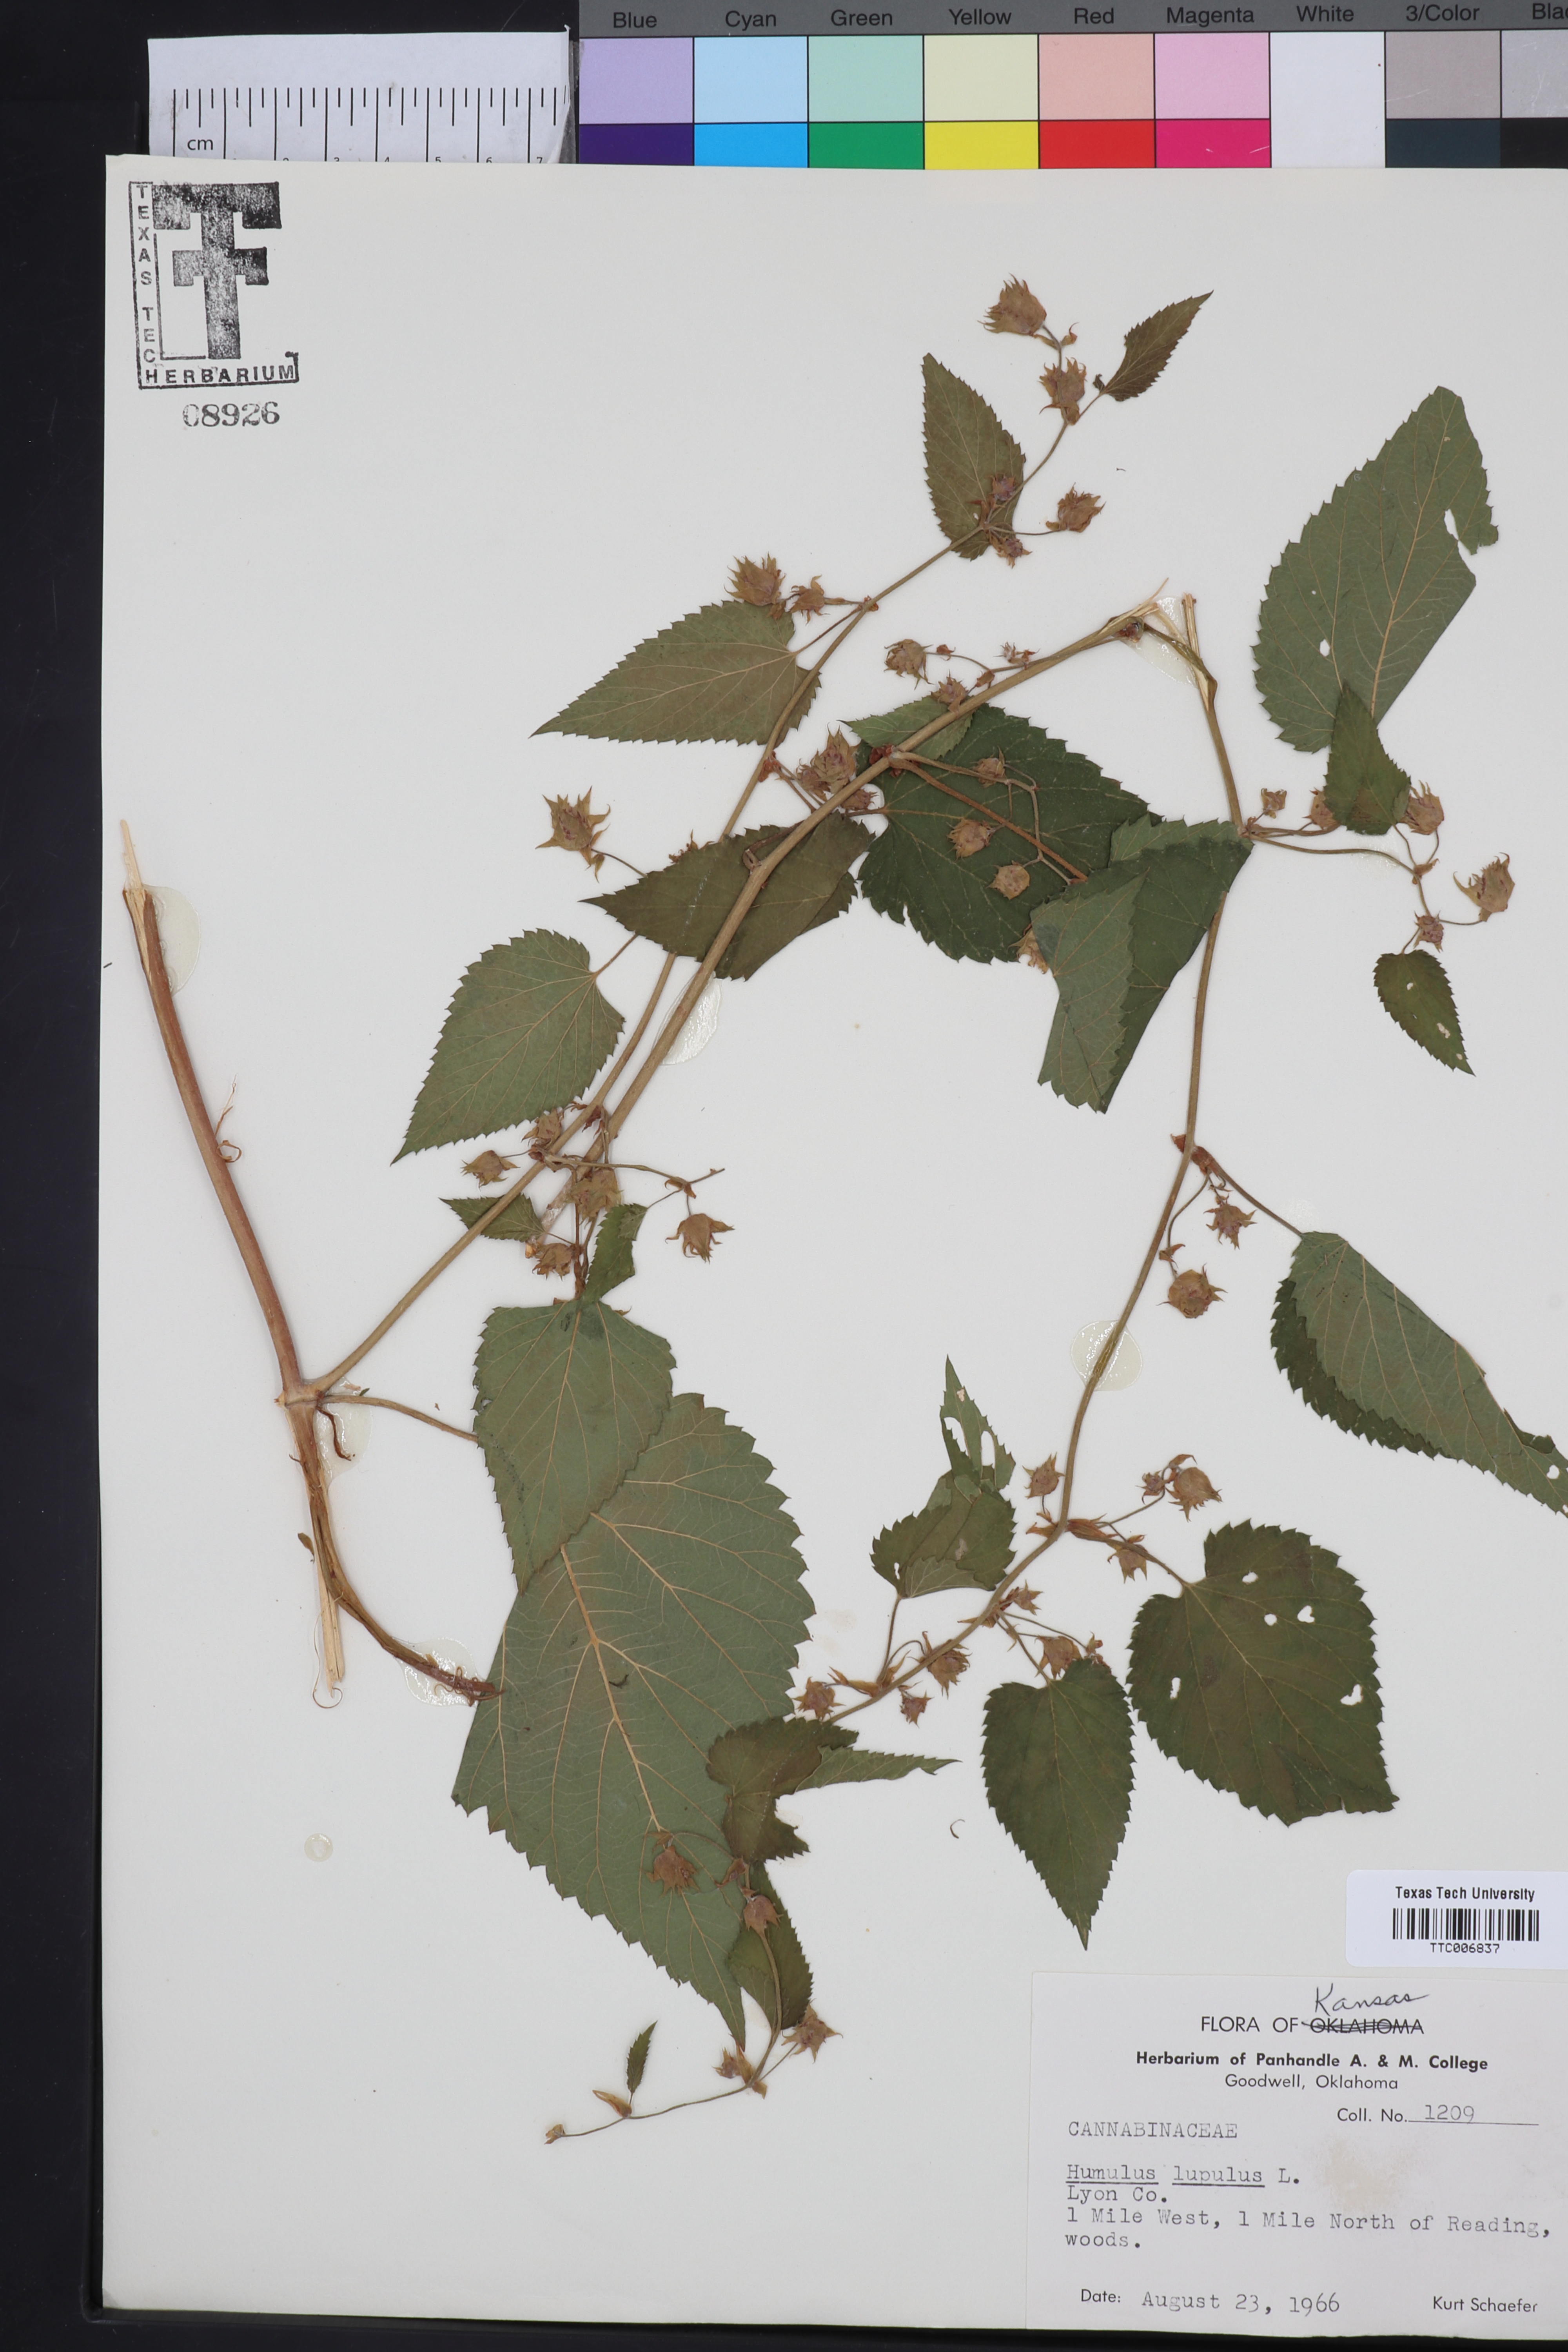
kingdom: Plantae
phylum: Tracheophyta
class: Magnoliopsida
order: Rosales
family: Cannabaceae
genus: Humulus
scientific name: Humulus americanus
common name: American hops
